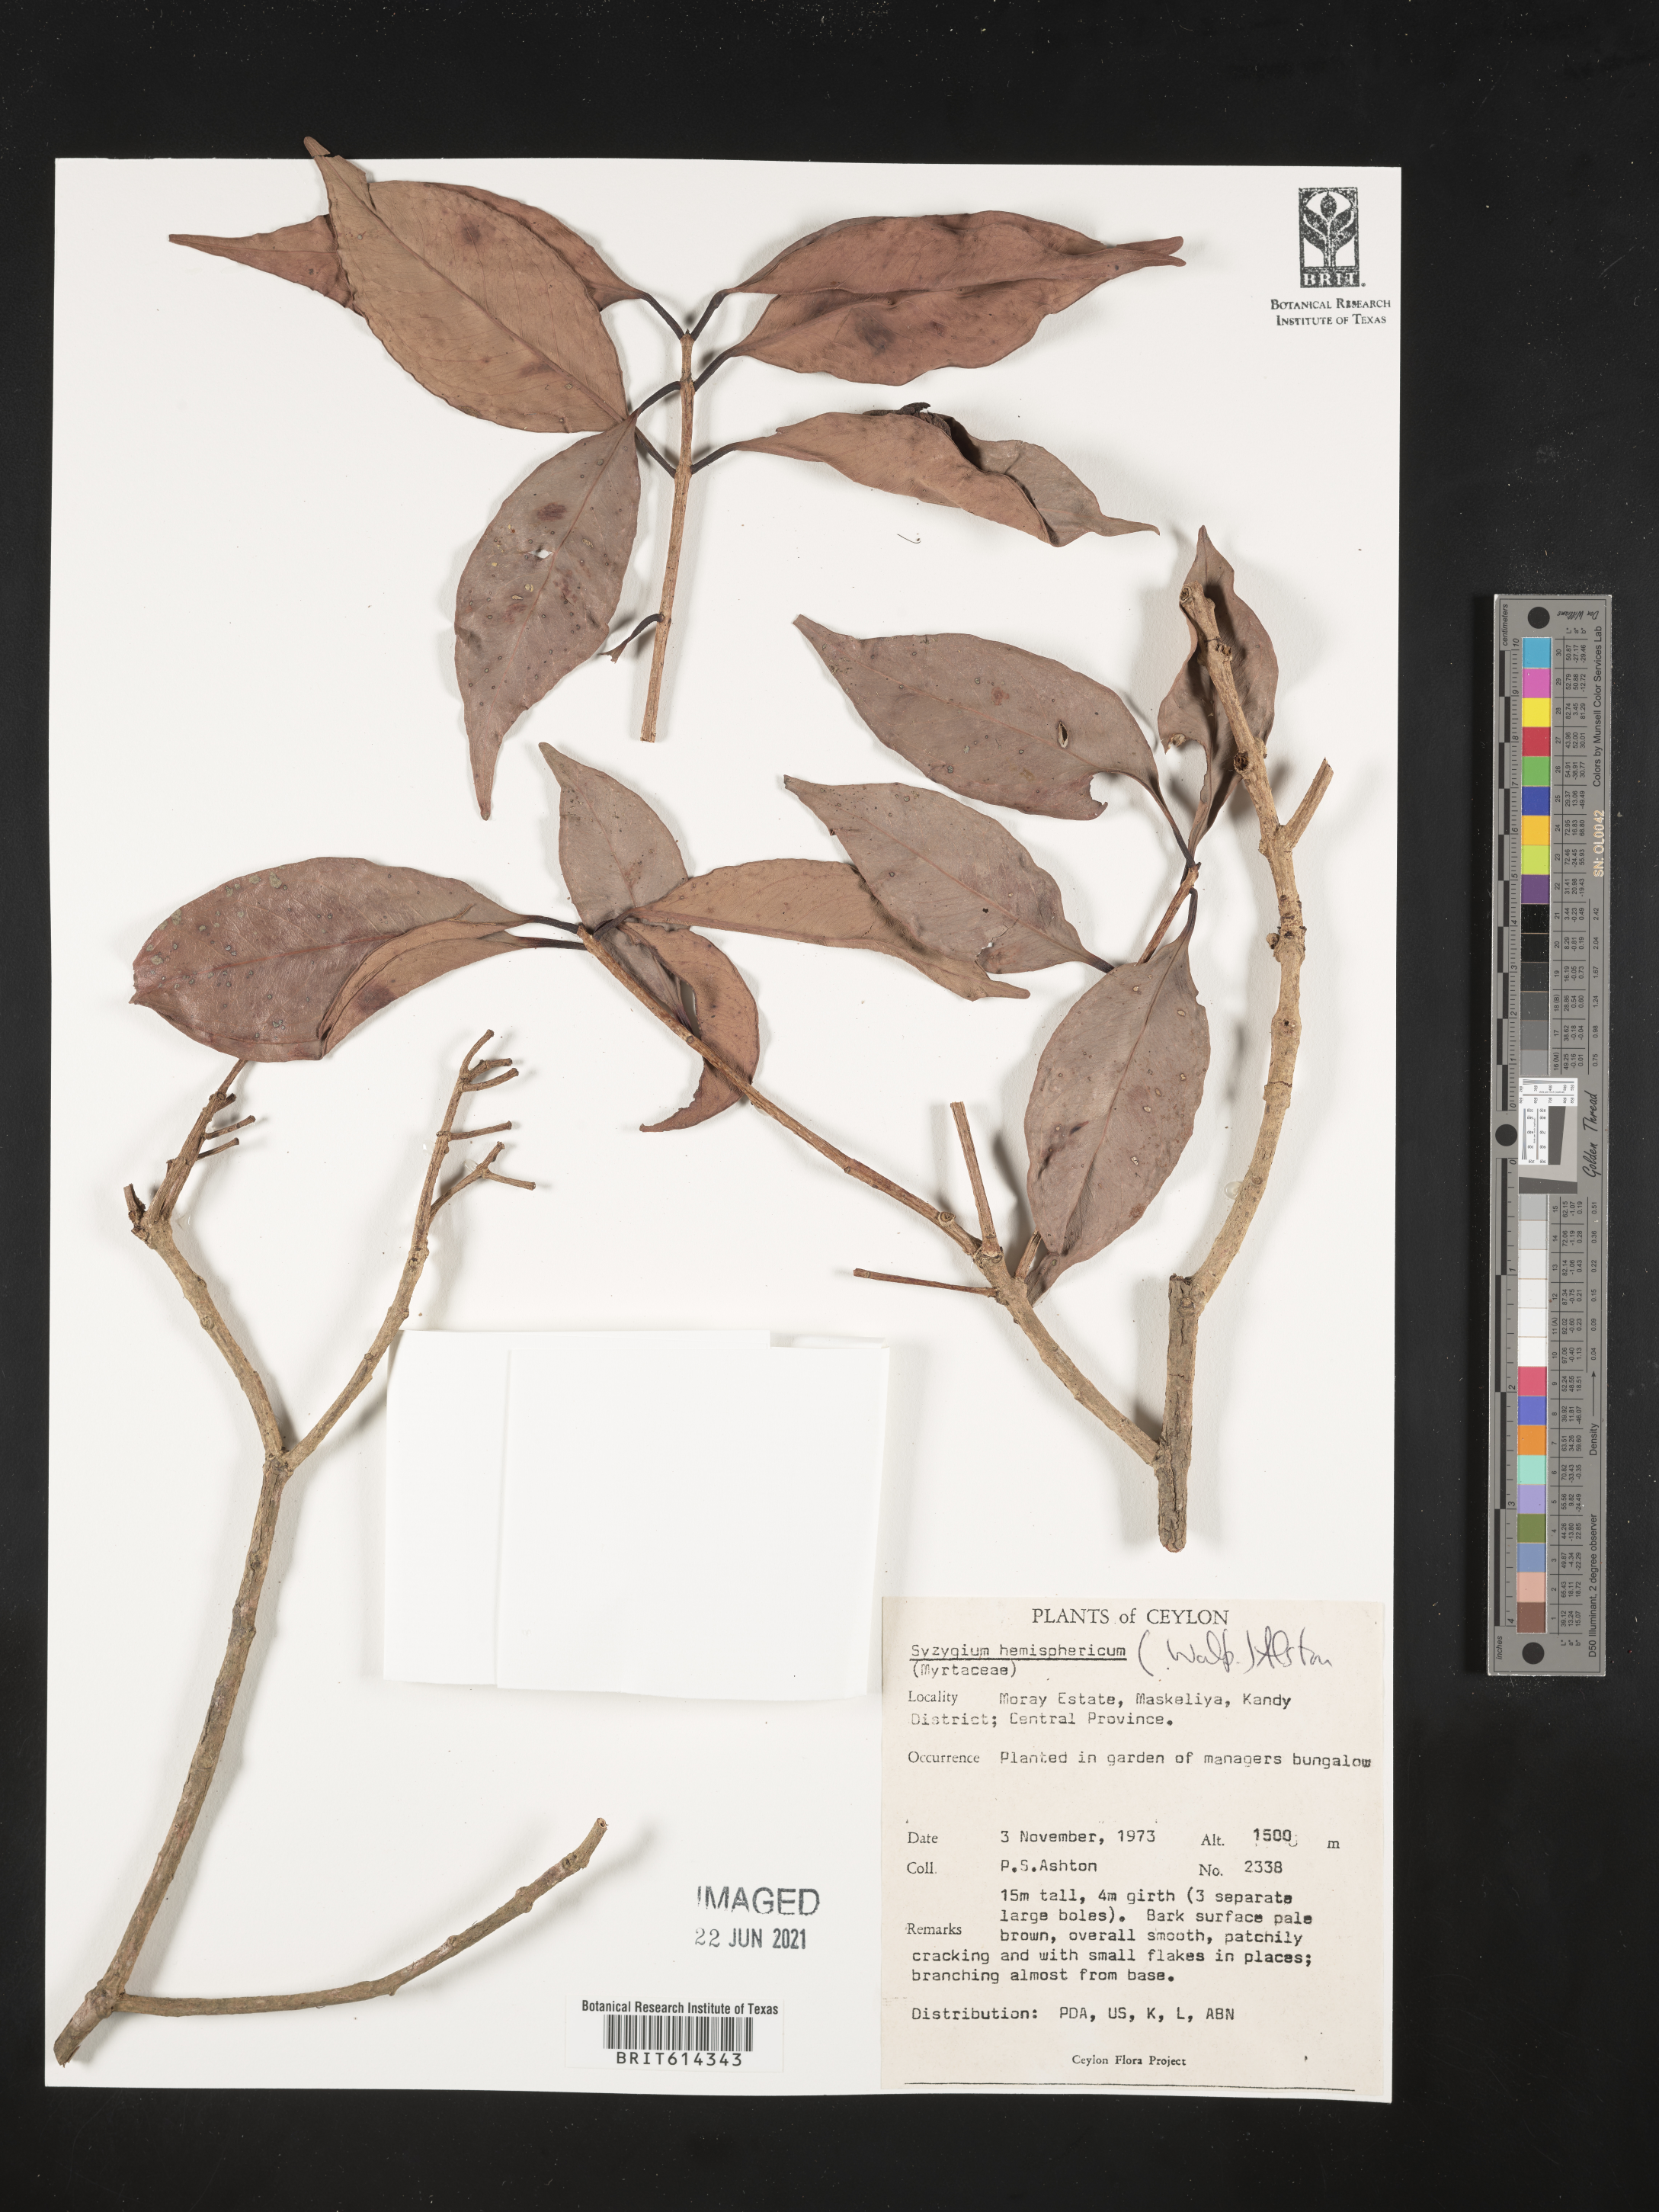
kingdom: Plantae
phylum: Tracheophyta
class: Magnoliopsida
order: Myrtales
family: Myrtaceae
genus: Syzygium
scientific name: Syzygium hemisphericum
